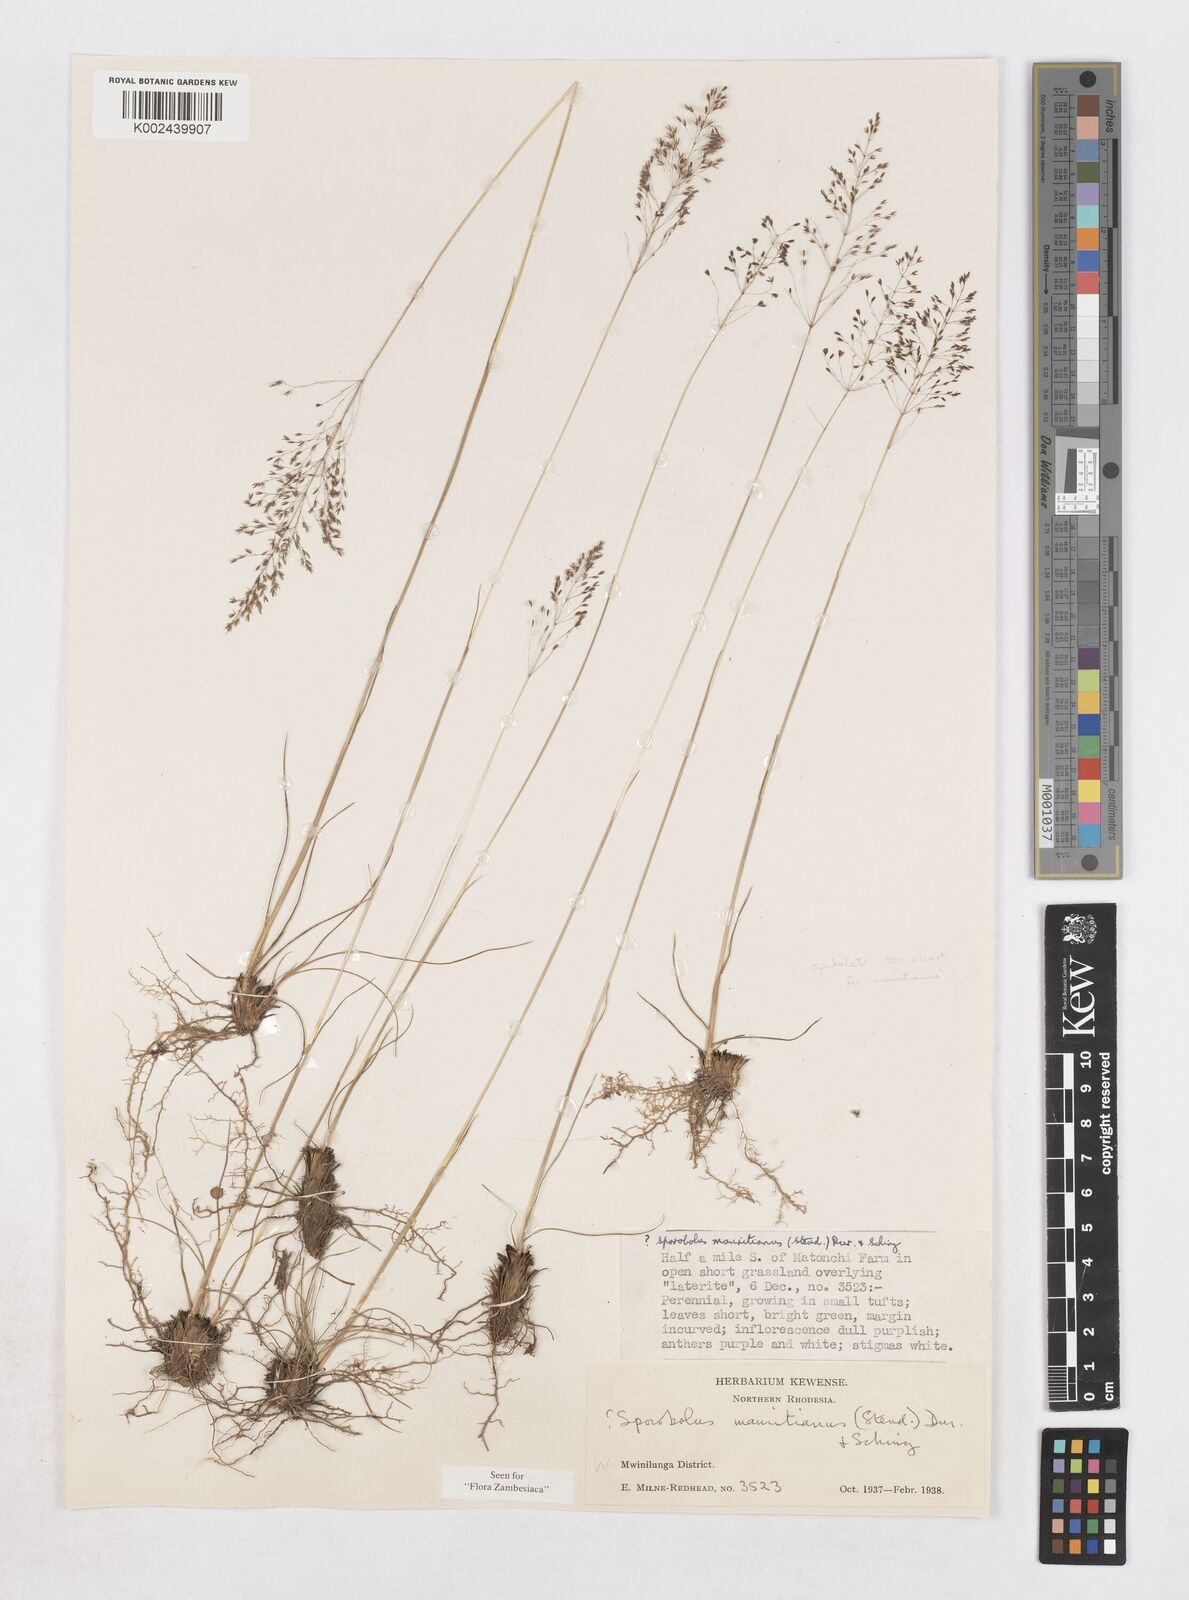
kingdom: Plantae
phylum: Tracheophyta
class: Liliopsida
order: Poales
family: Poaceae
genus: Sporobolus
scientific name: Sporobolus subulatus
